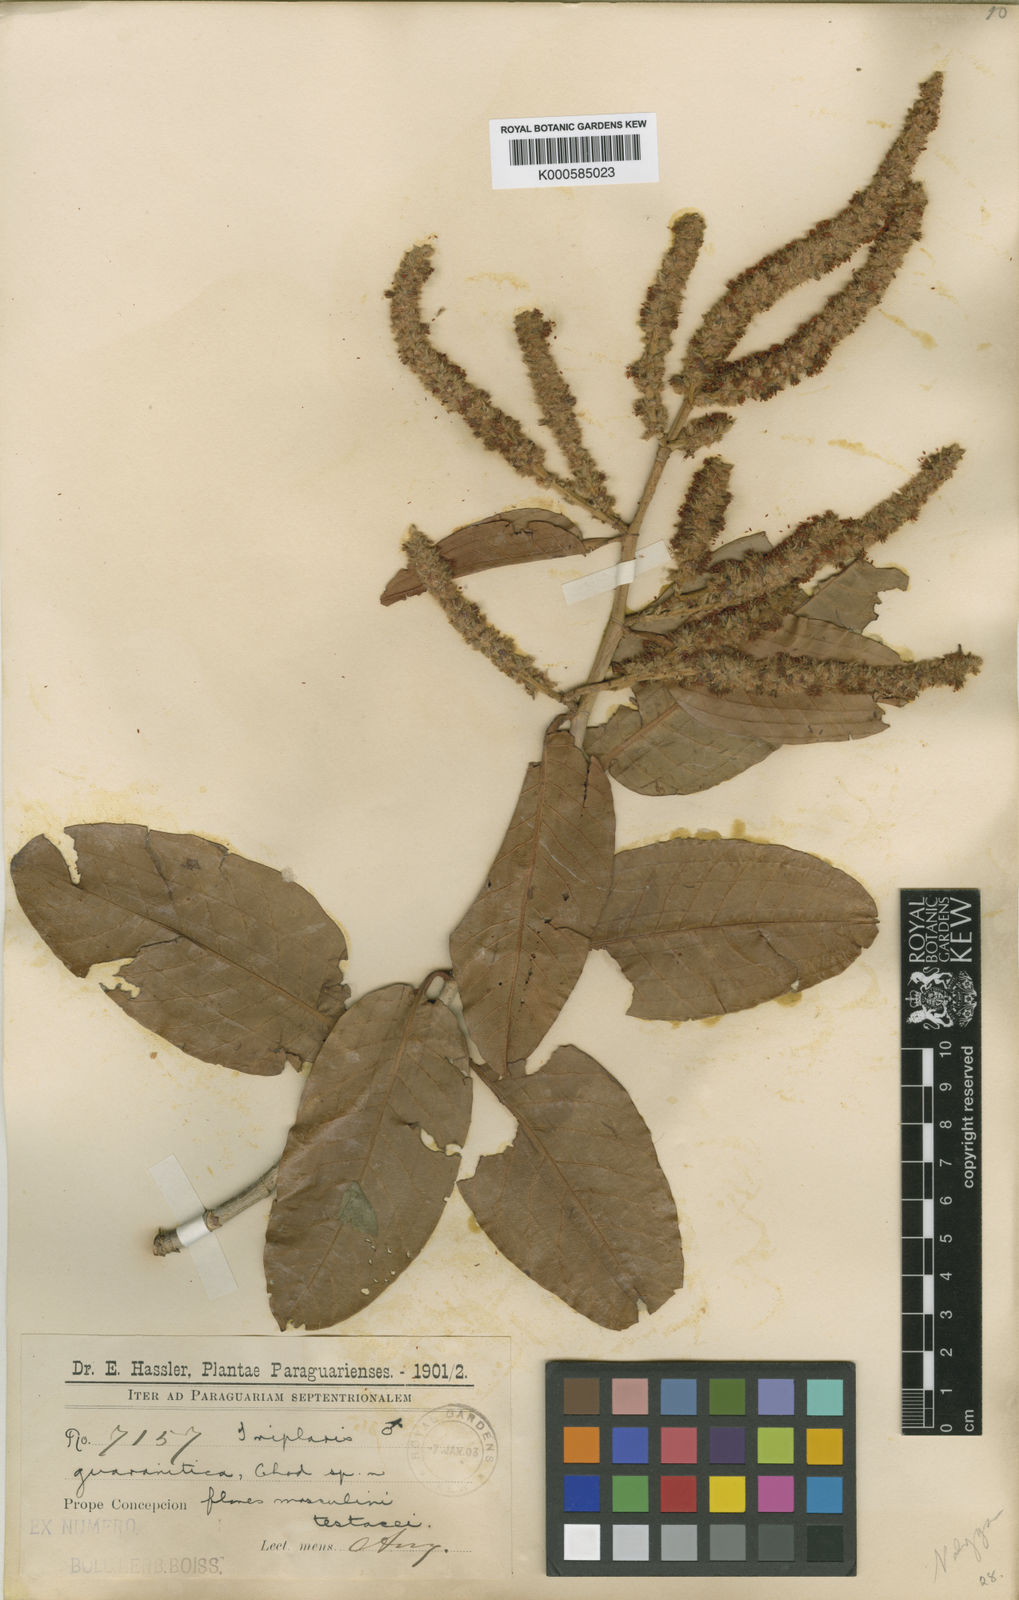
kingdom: Plantae
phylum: Tracheophyta
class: Magnoliopsida
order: Caryophyllales
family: Polygonaceae
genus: Triplaris
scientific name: Triplaris gardneriana
